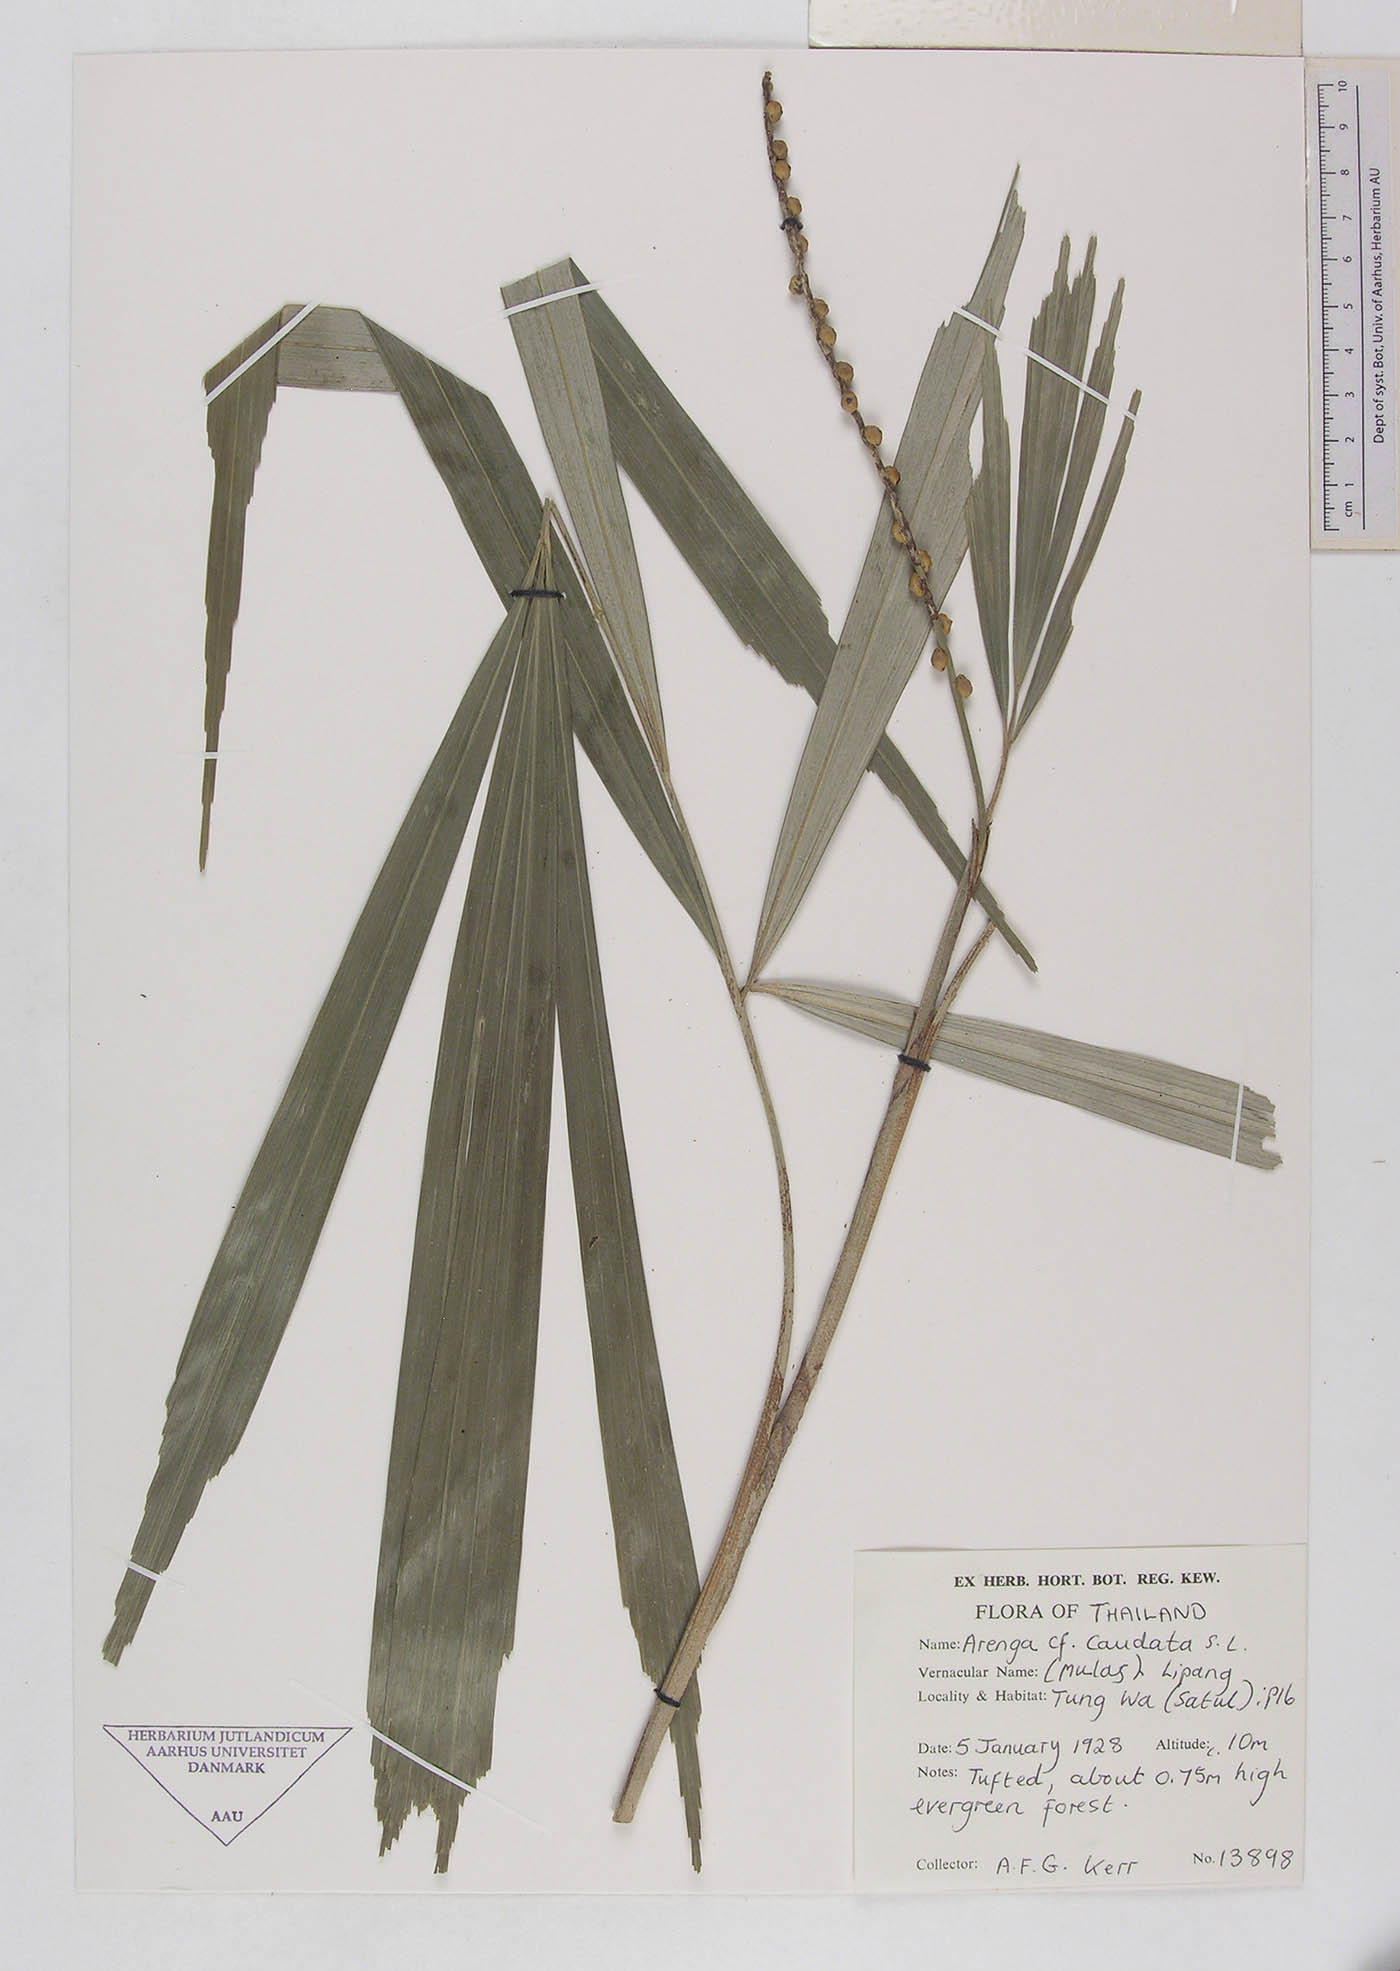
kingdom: Plantae
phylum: Tracheophyta
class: Liliopsida
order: Arecales
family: Arecaceae
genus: Arenga
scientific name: Arenga caudata
